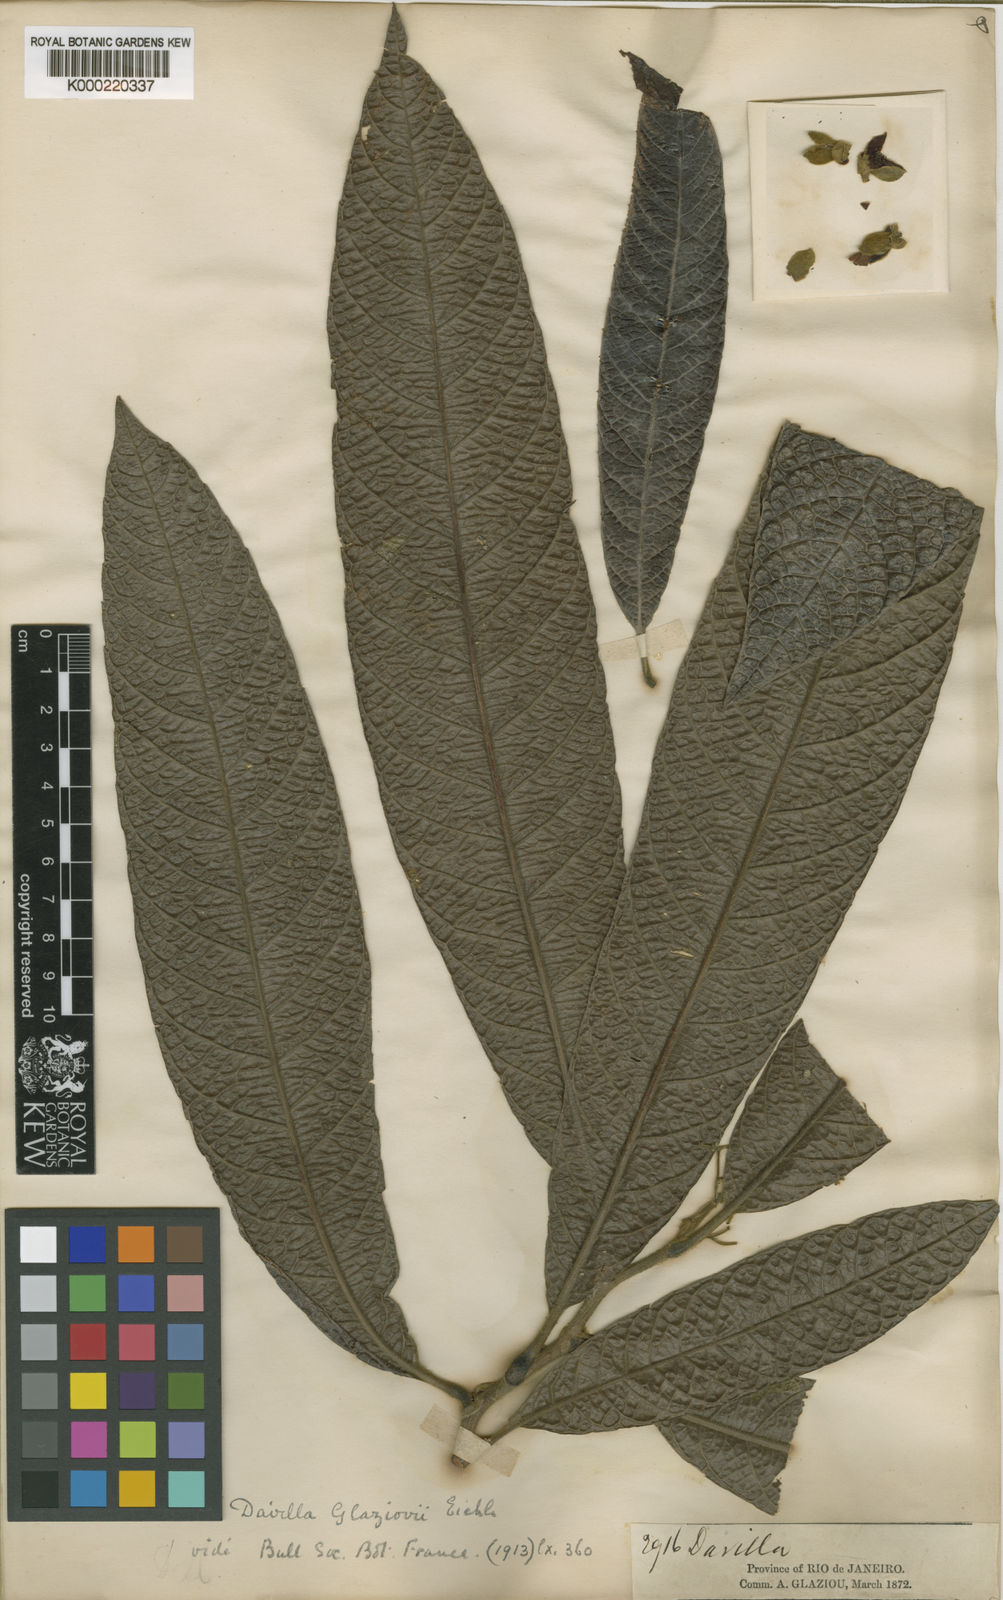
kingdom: Plantae
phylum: Tracheophyta
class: Magnoliopsida
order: Dilleniales
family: Dilleniaceae
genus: Davilla
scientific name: Davilla glaziovii
